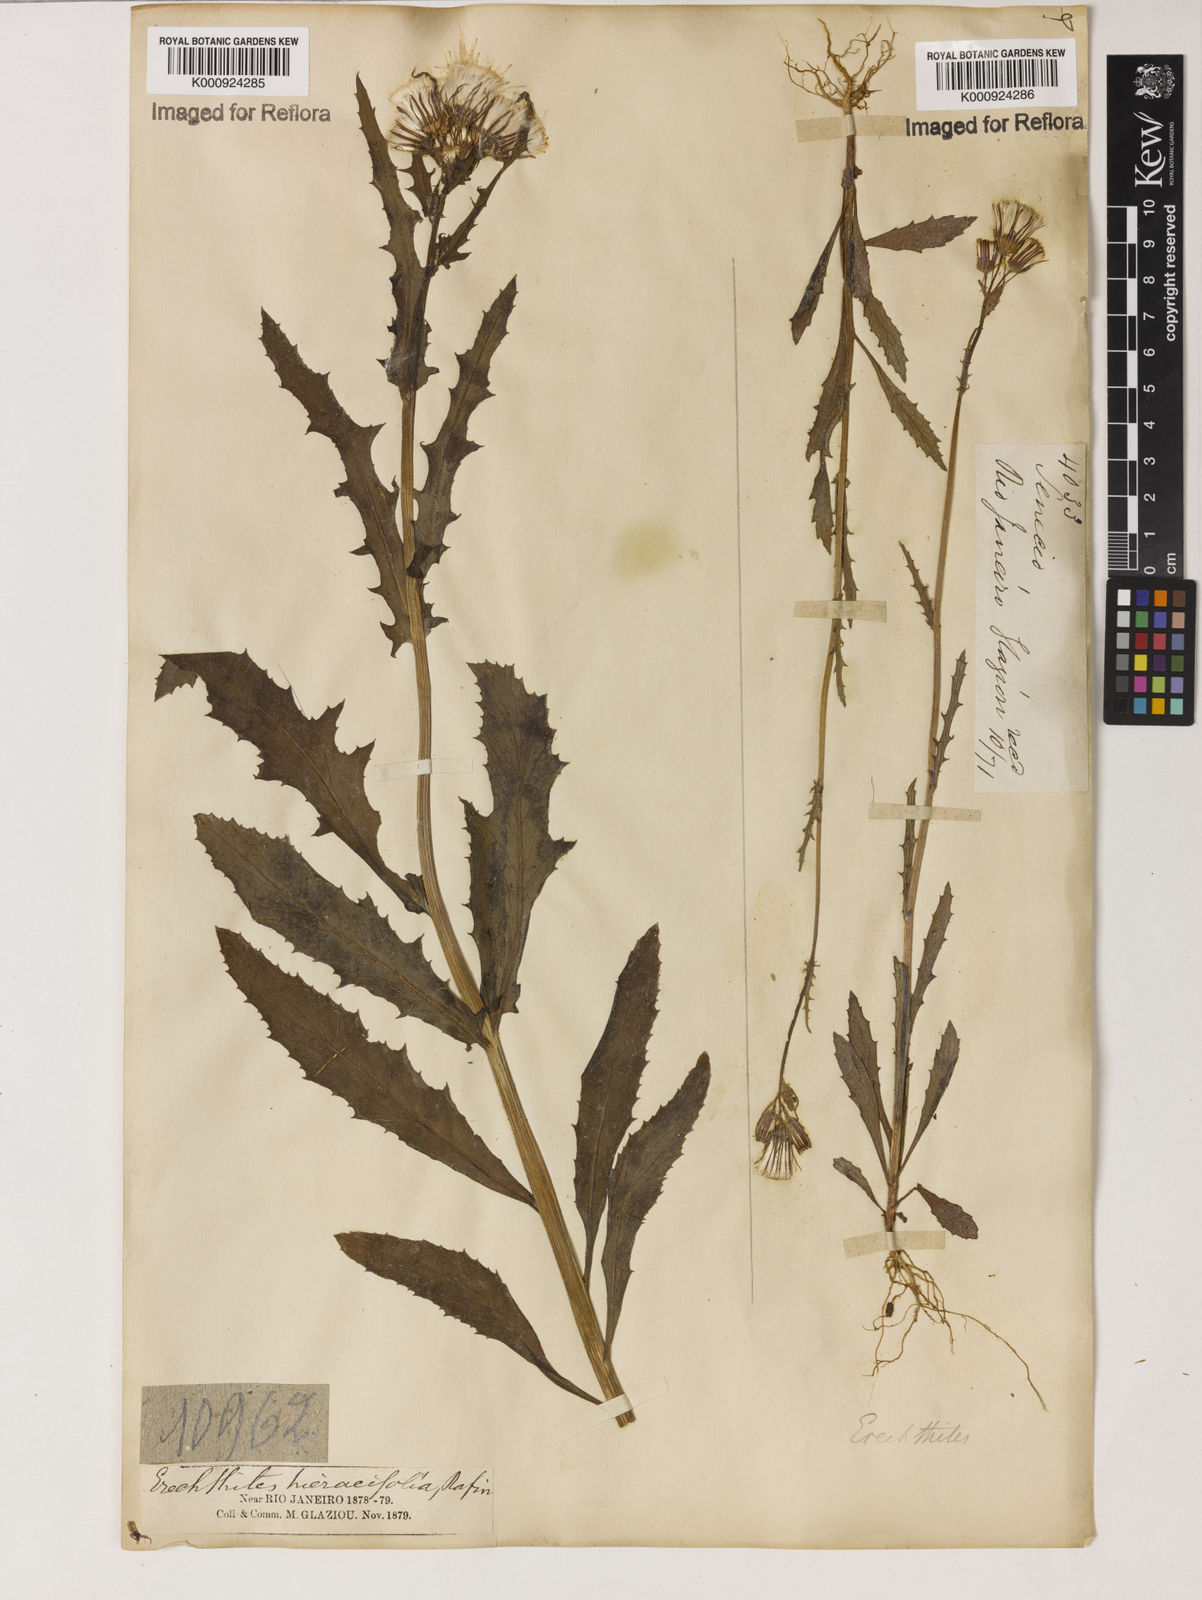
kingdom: Plantae
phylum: Tracheophyta
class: Magnoliopsida
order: Asterales
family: Asteraceae
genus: Erechtites
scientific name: Erechtites hieraciifolius
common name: American burnweed
